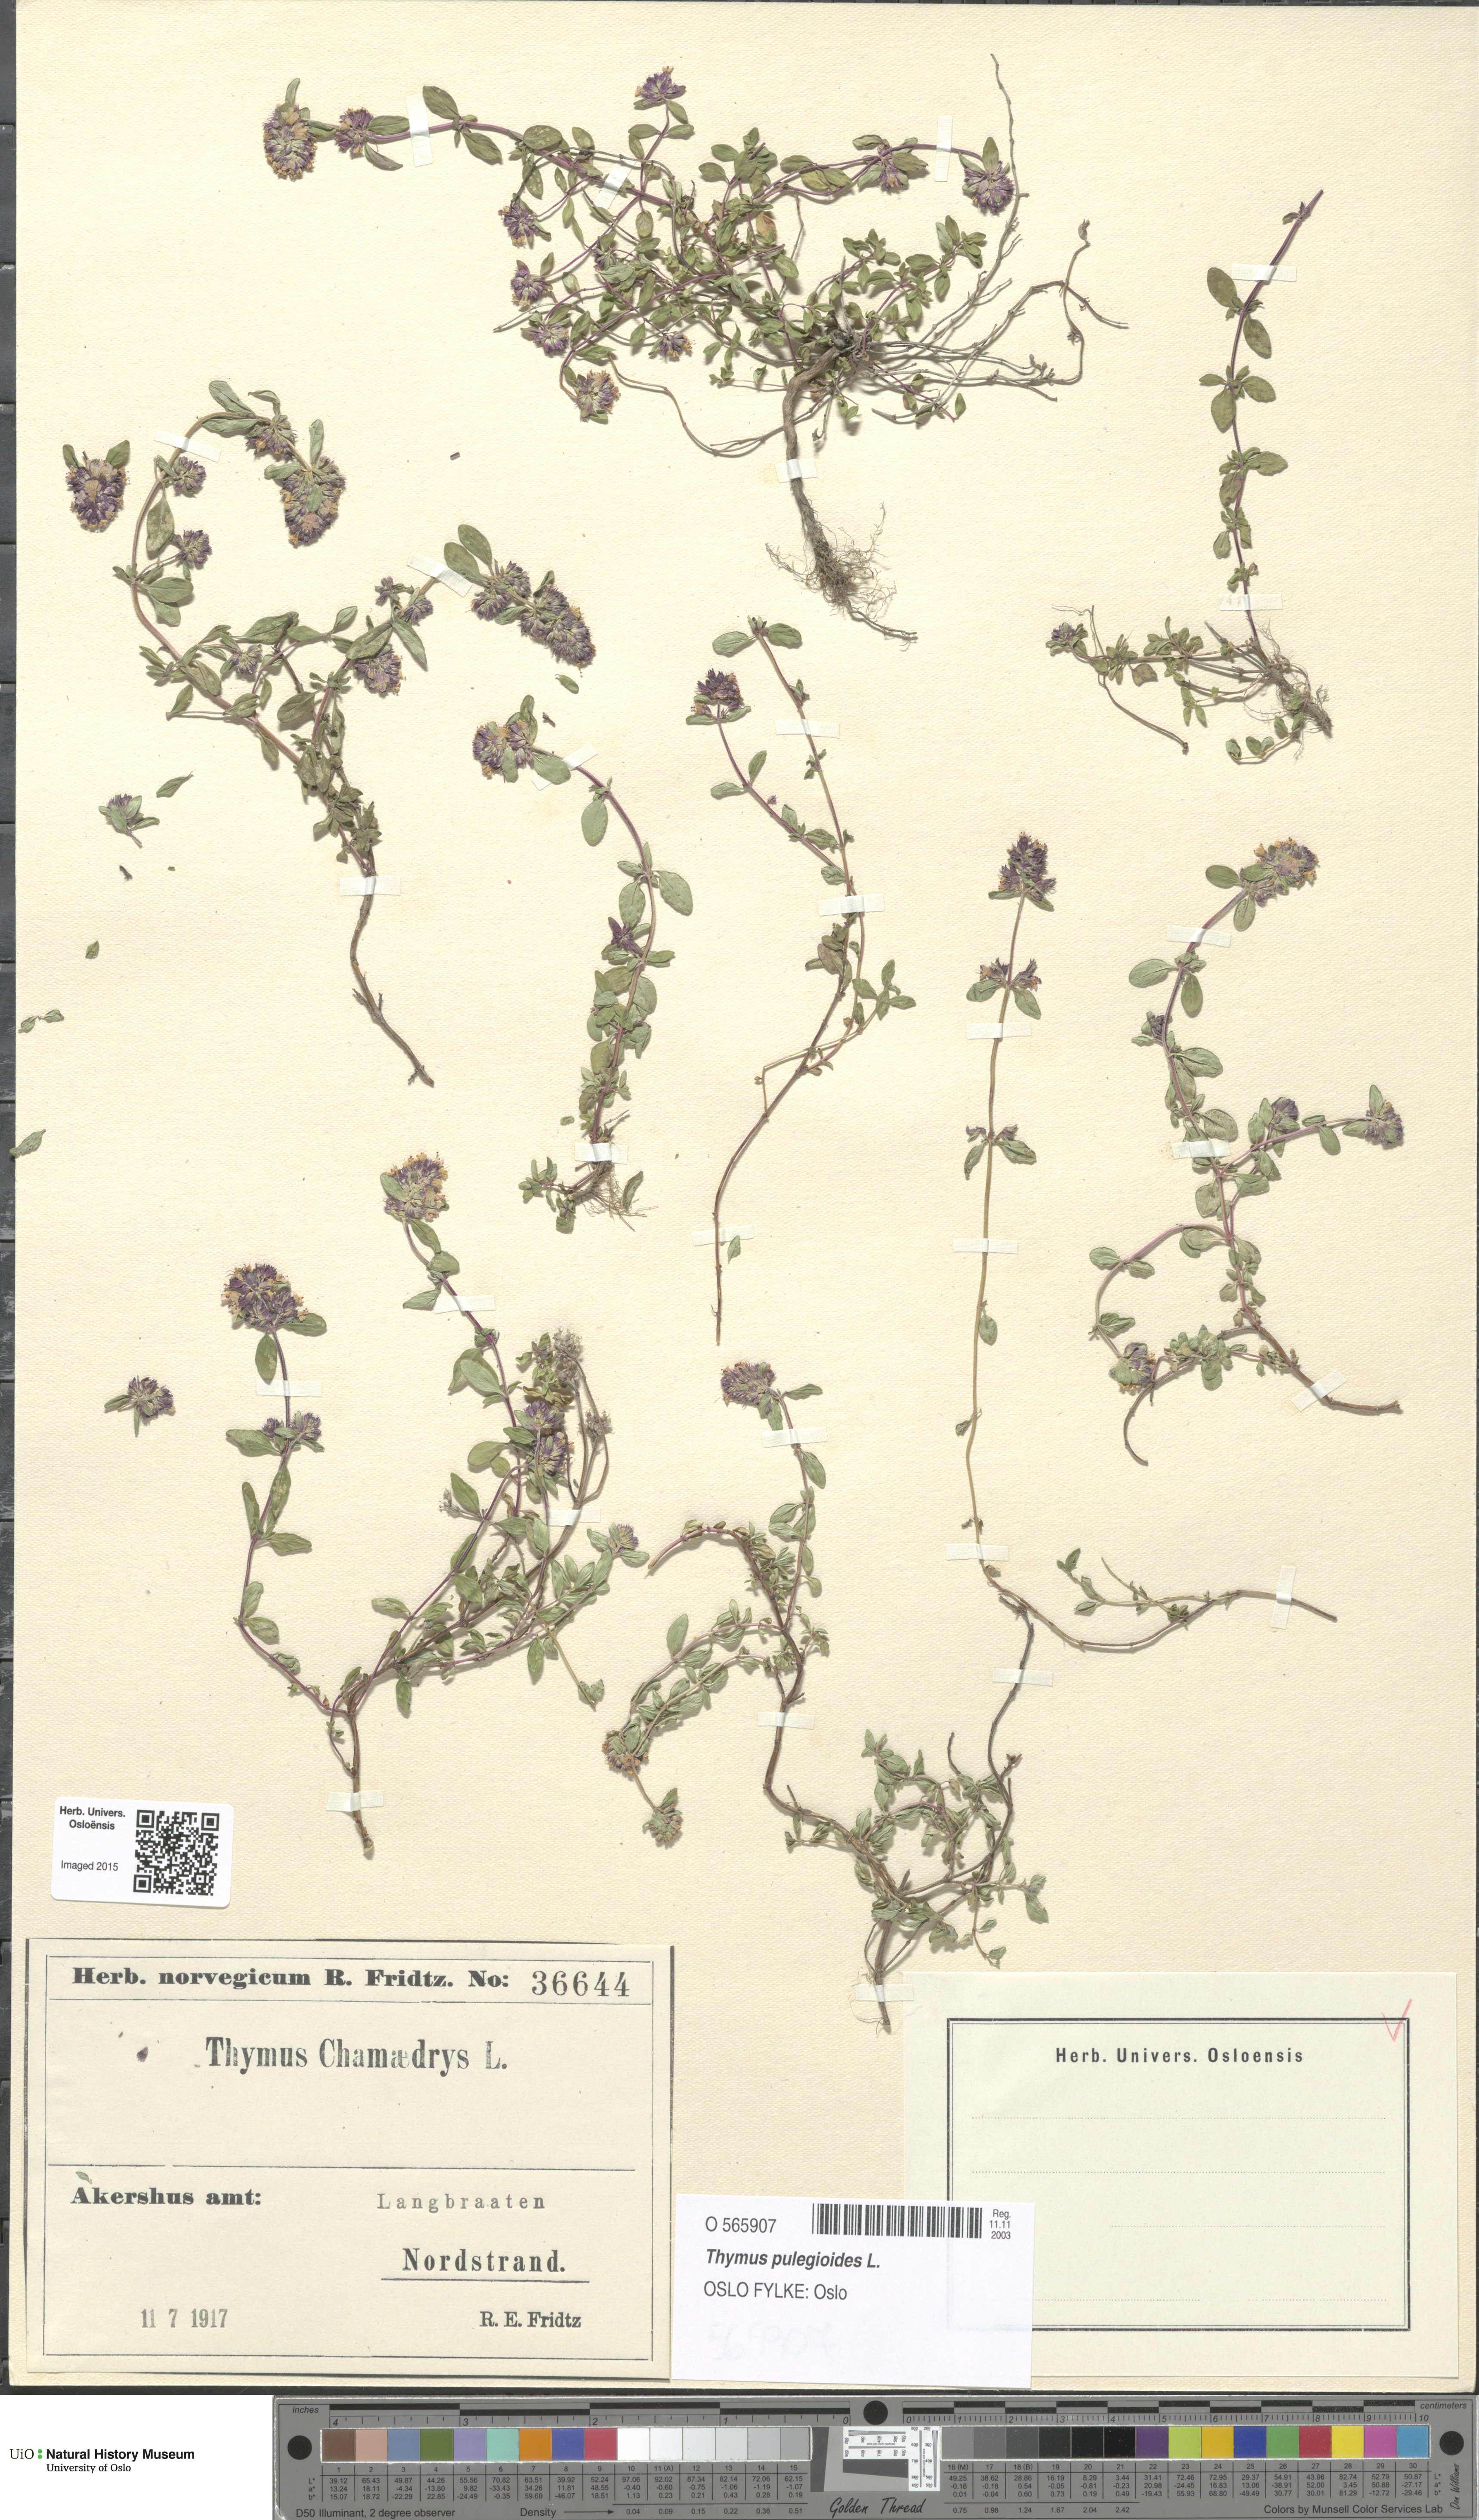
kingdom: Plantae
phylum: Tracheophyta
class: Magnoliopsida
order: Lamiales
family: Lamiaceae
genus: Thymus
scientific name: Thymus pulegioides
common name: Large thyme
